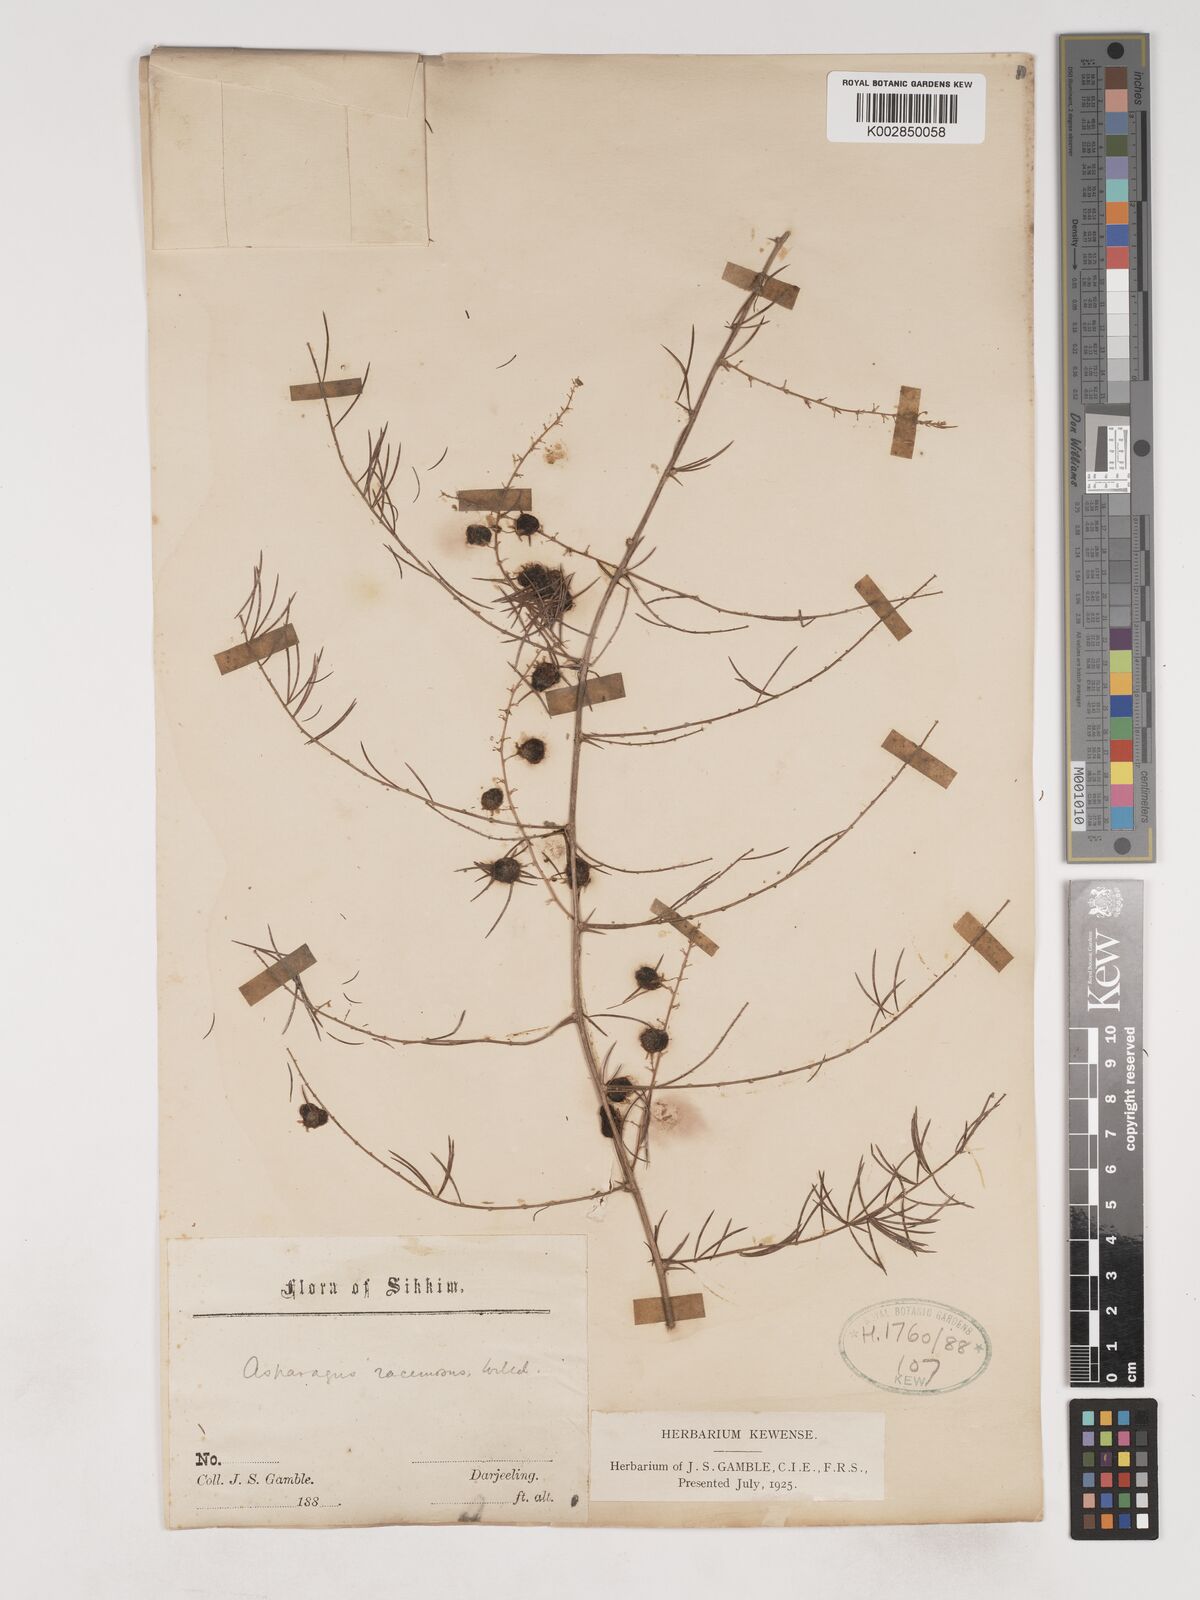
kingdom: Plantae
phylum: Tracheophyta
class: Liliopsida
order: Asparagales
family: Asparagaceae
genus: Asparagus
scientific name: Asparagus racemosus
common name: Asparagus-fern
